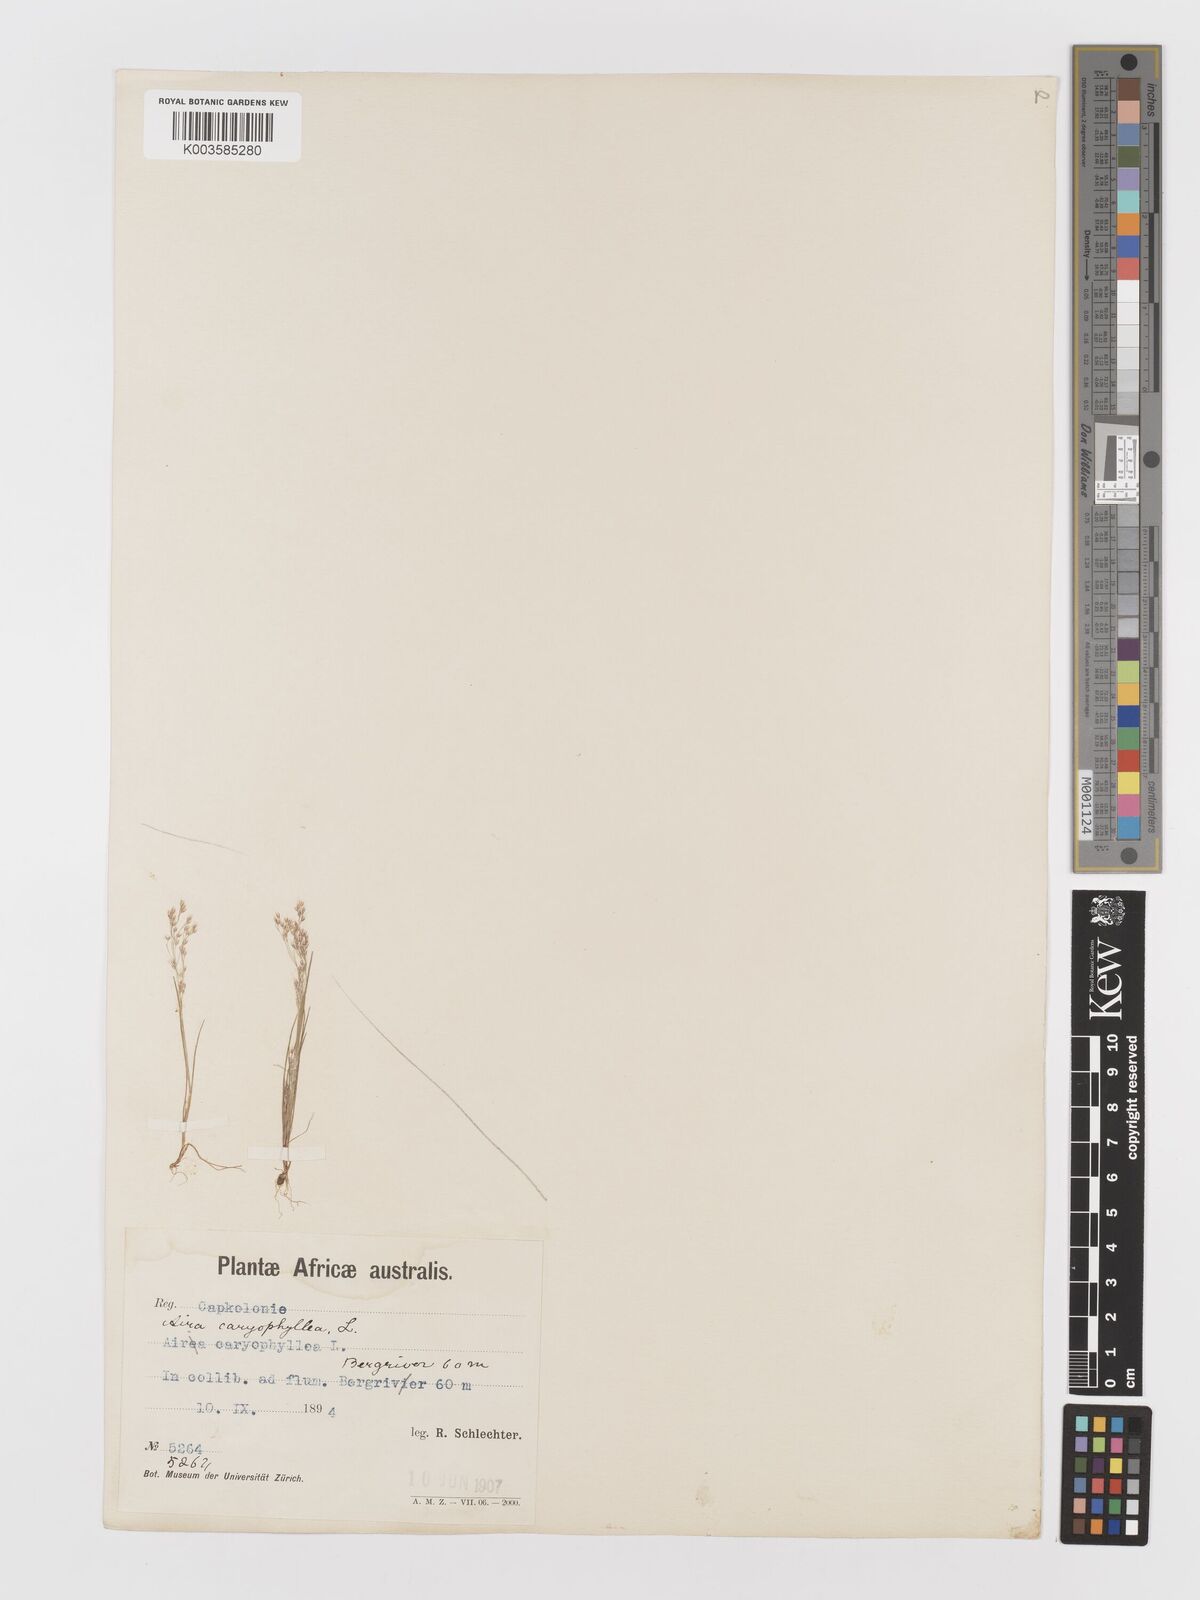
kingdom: Plantae
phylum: Tracheophyta
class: Liliopsida
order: Poales
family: Poaceae
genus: Aira
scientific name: Aira cupaniana
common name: Silver hairgrass
